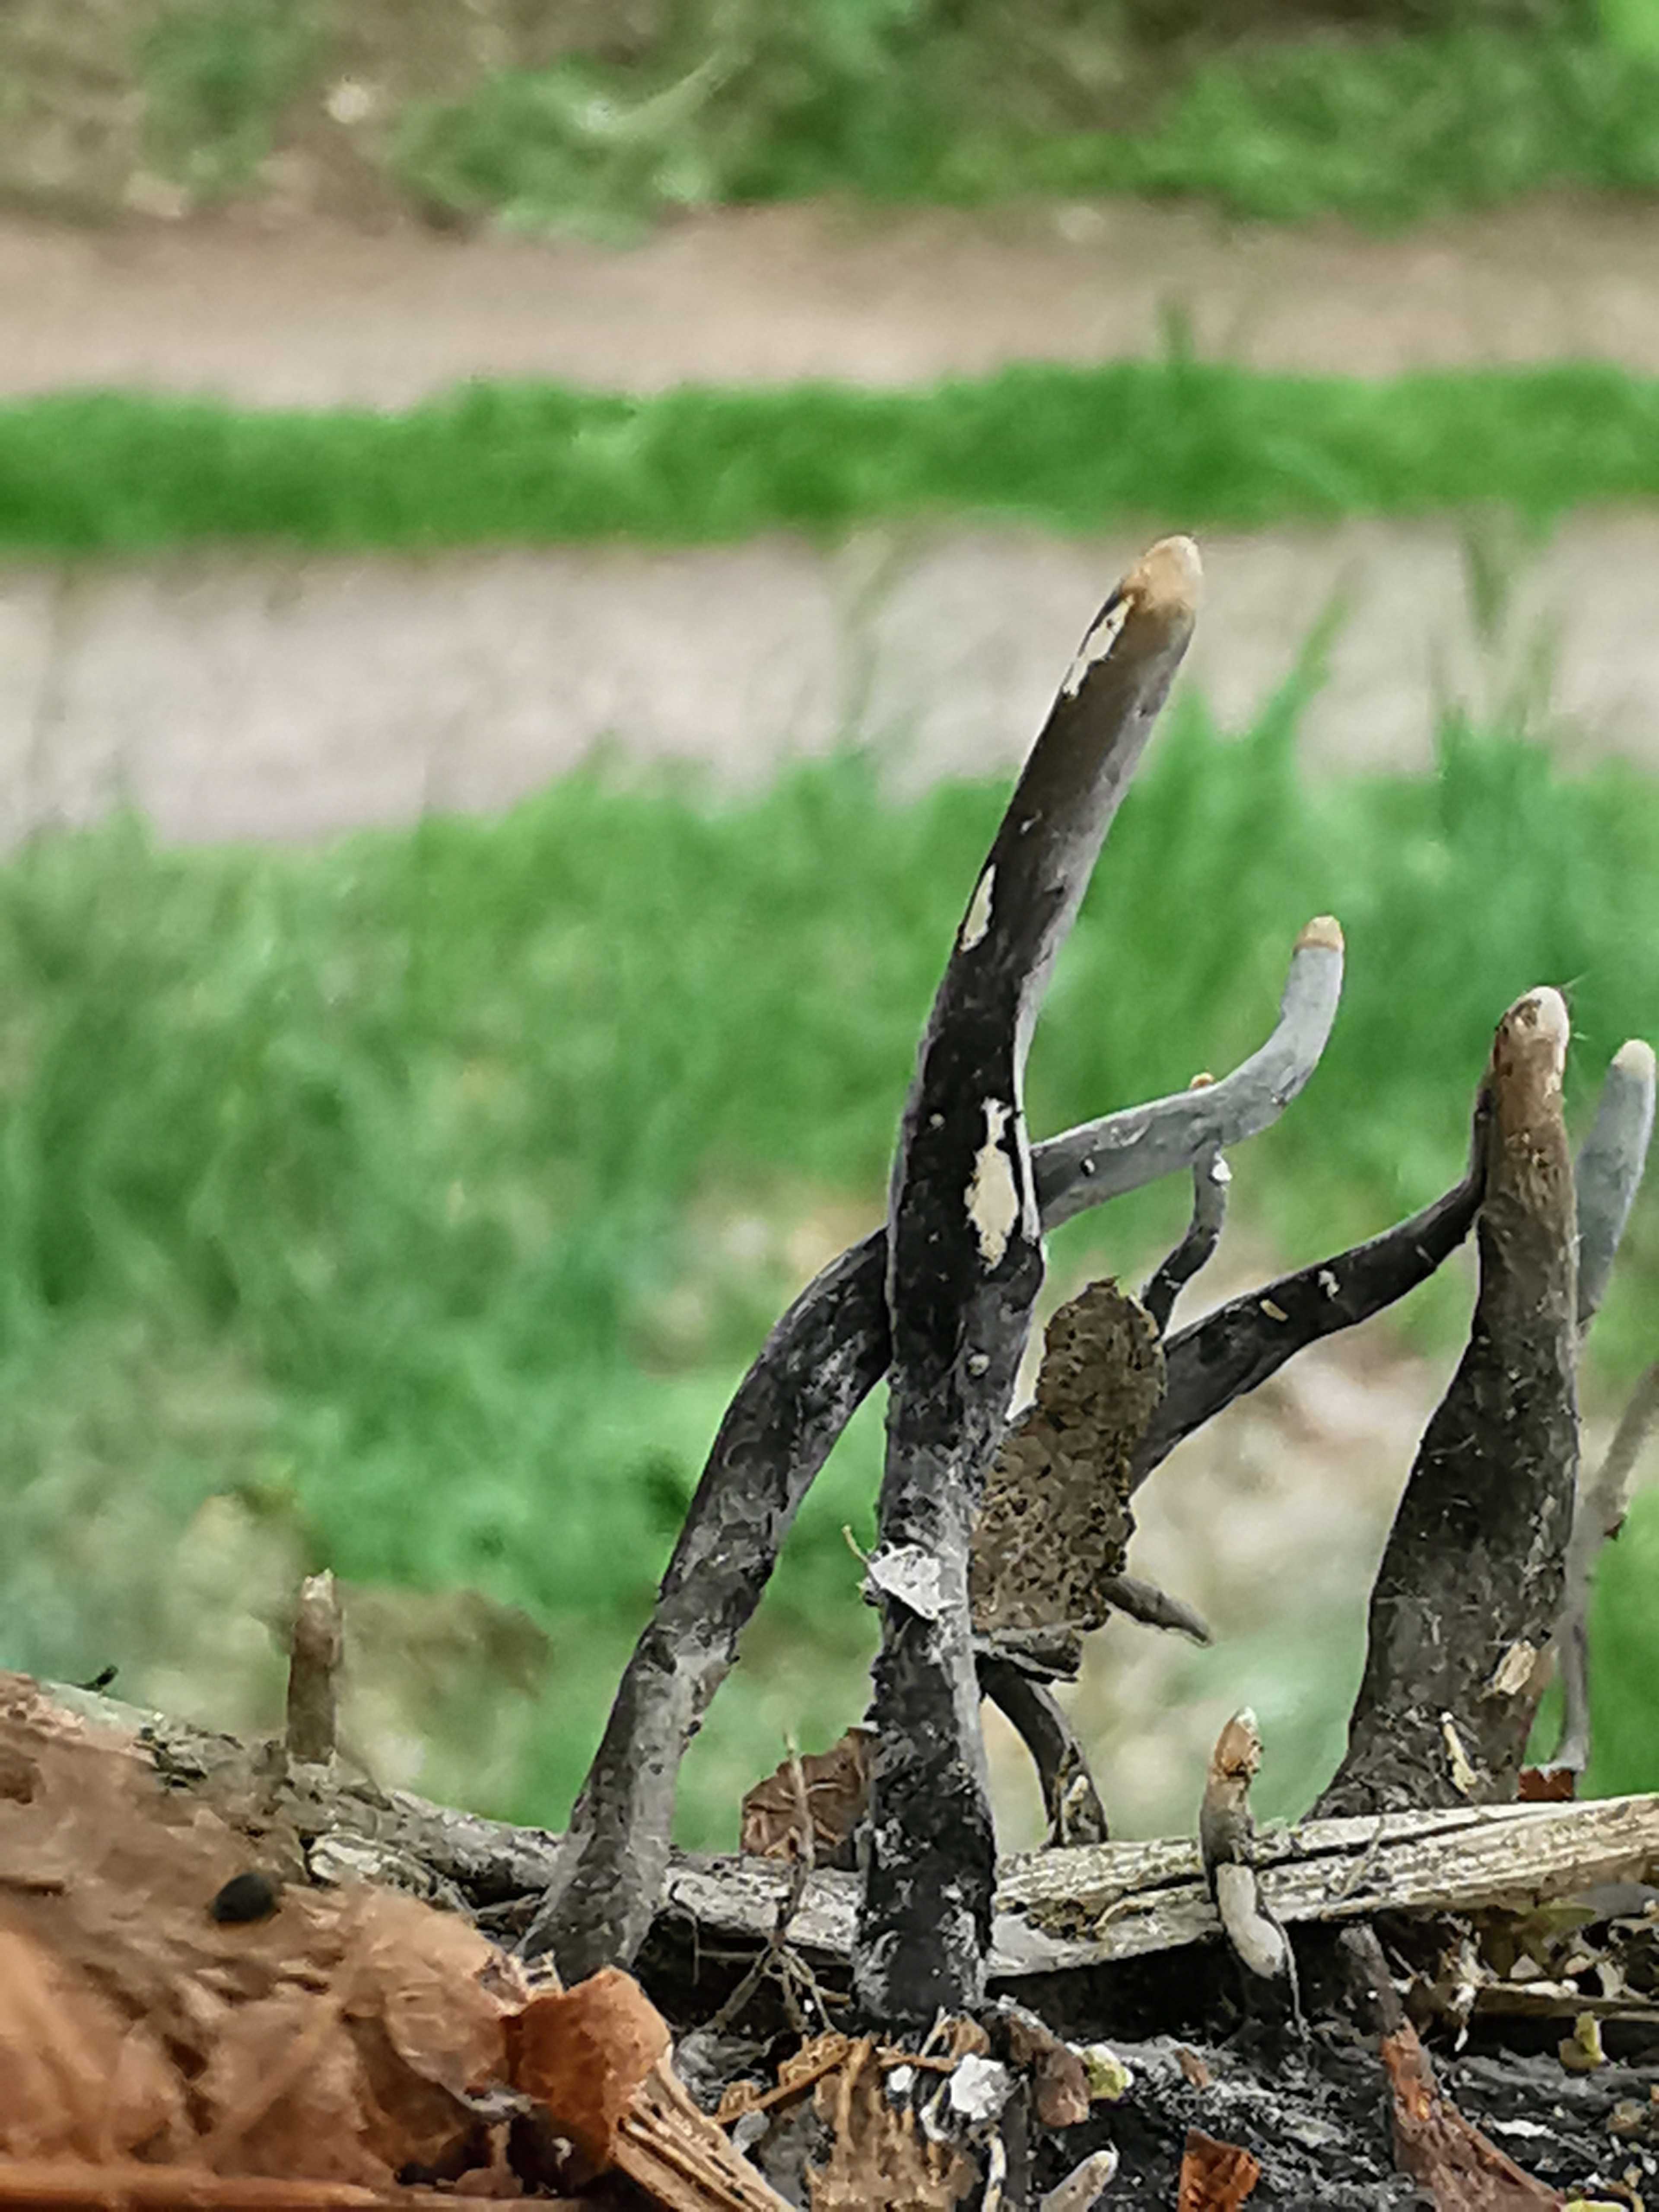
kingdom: Fungi
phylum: Ascomycota
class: Sordariomycetes
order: Xylariales
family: Xylariaceae
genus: Xylaria
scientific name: Xylaria longipes
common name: slank stødsvamp
